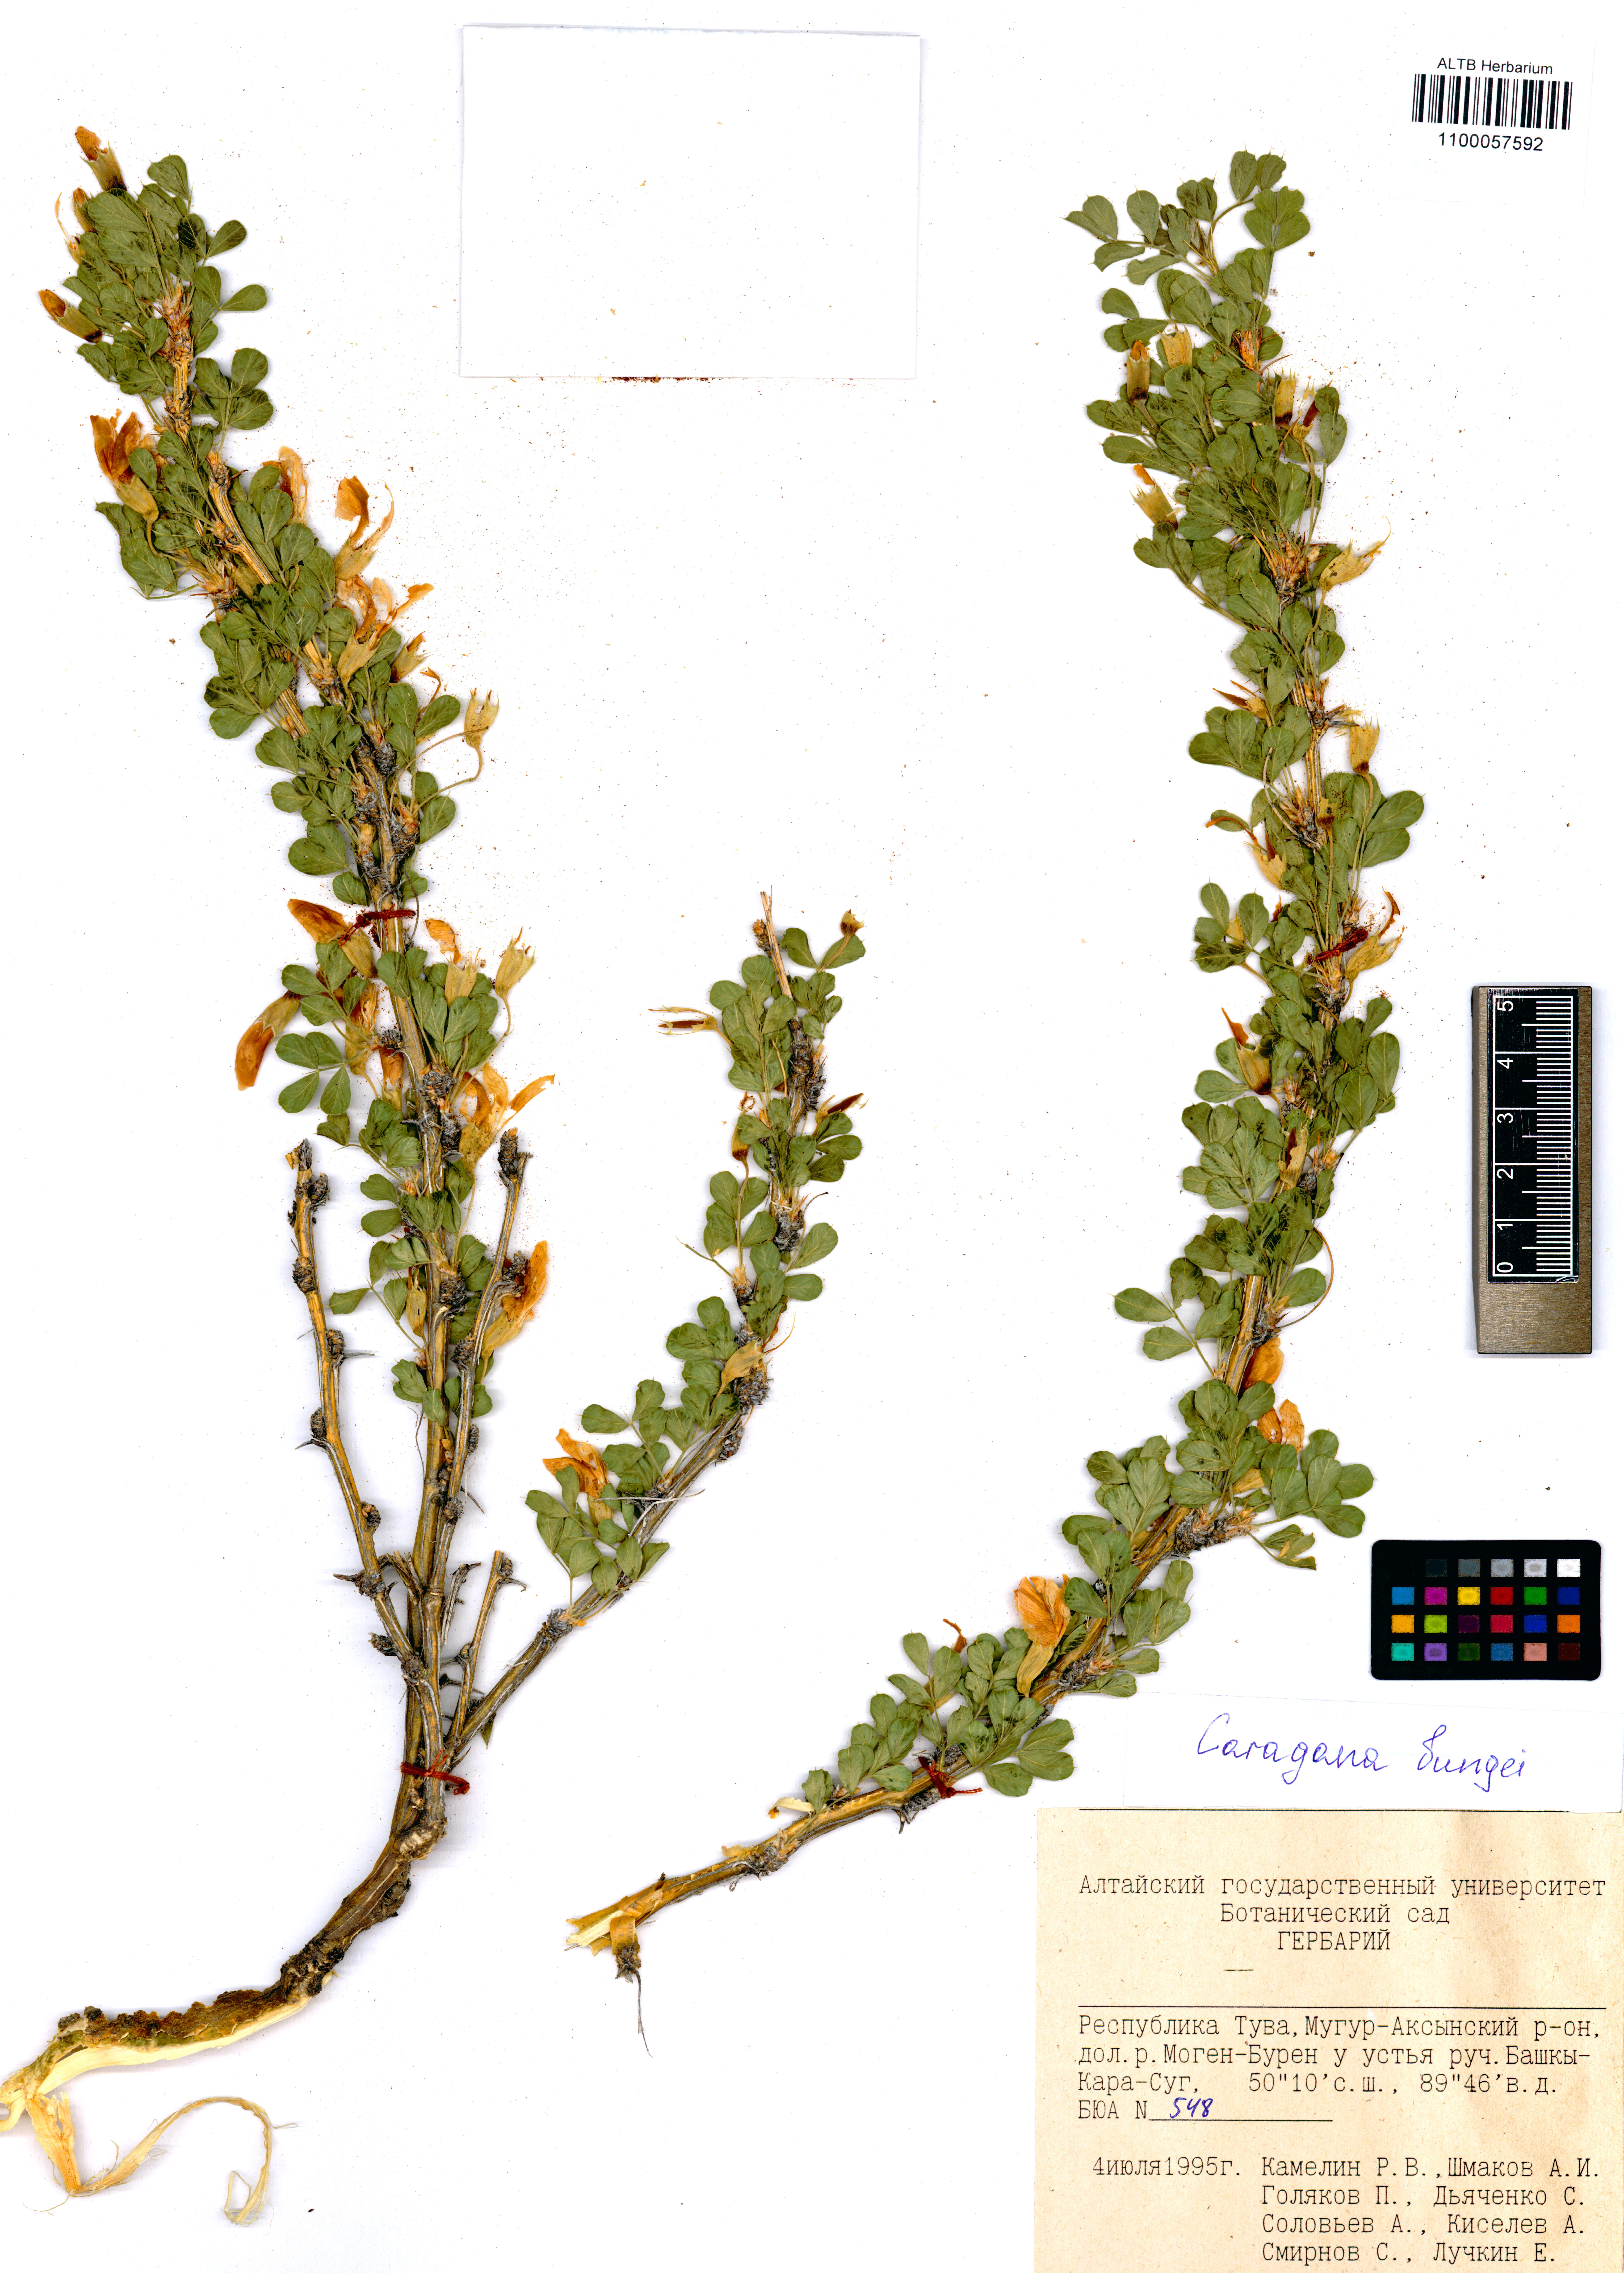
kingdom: Plantae
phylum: Tracheophyta
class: Magnoliopsida
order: Fabales
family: Fabaceae
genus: Caragana
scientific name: Caragana bungei
